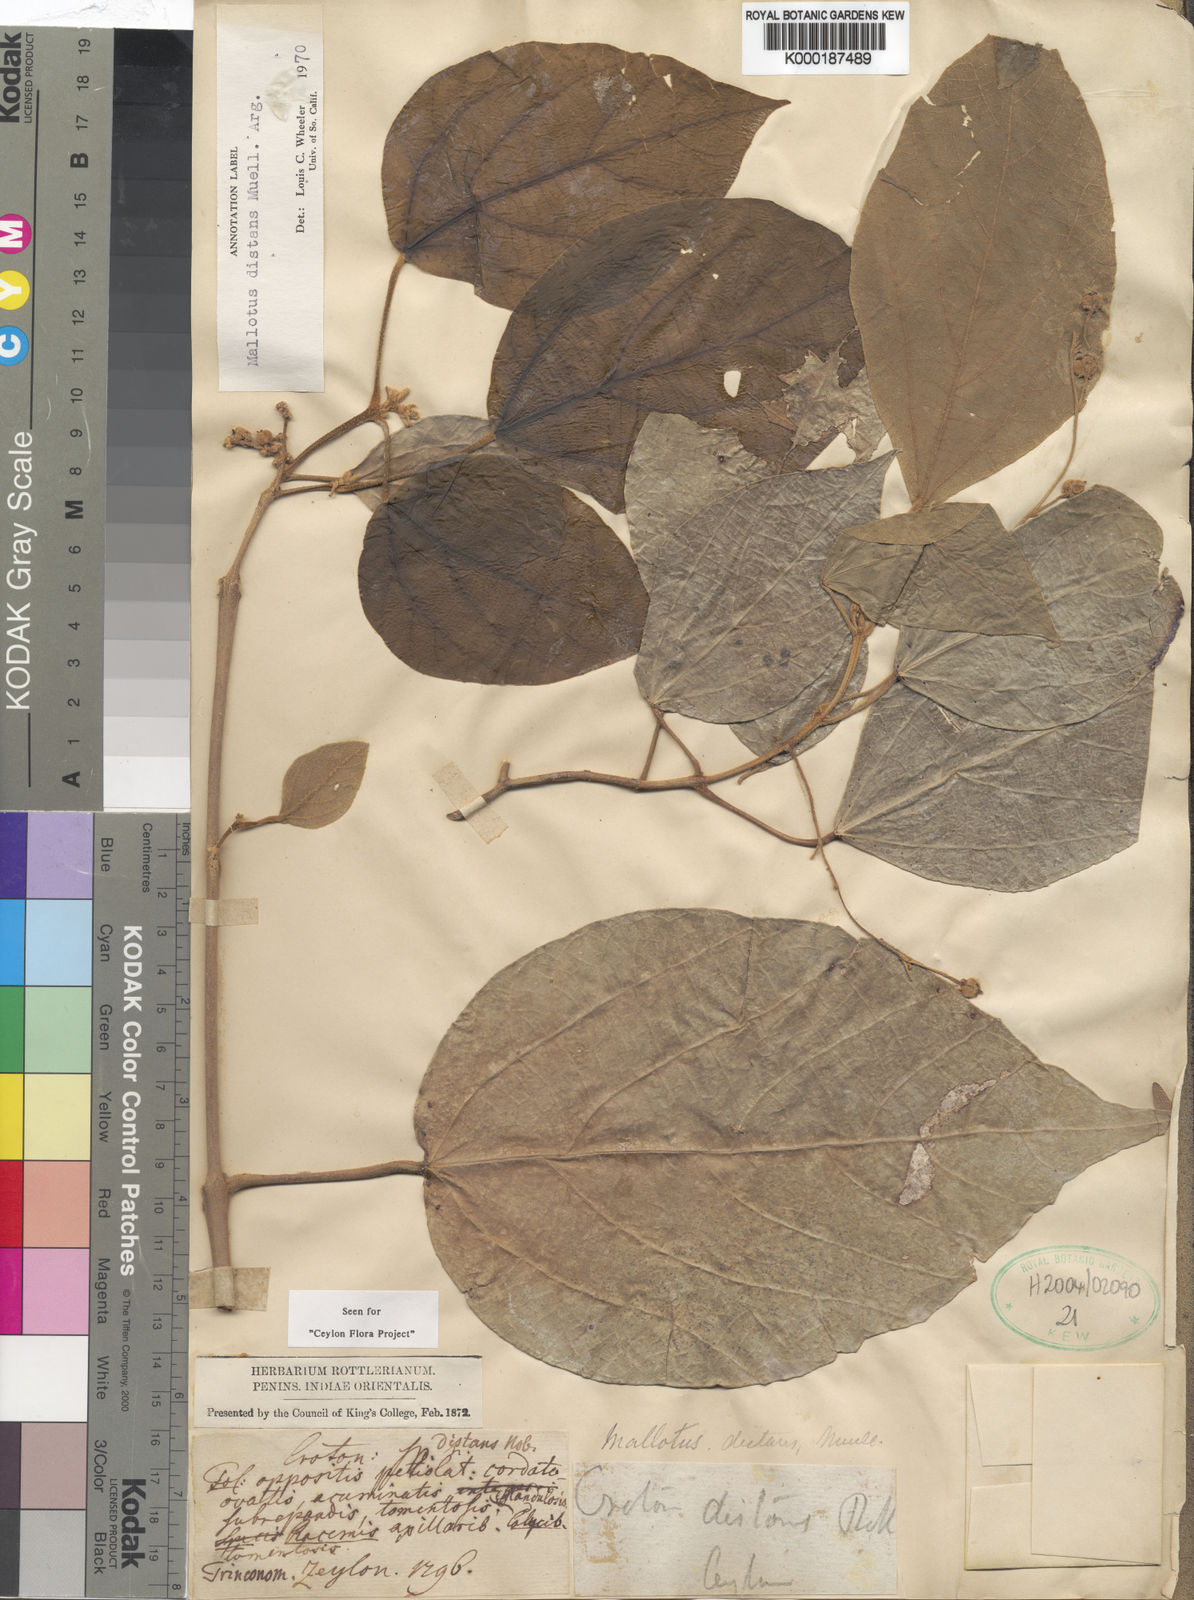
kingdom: Plantae
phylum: Tracheophyta
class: Magnoliopsida
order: Malpighiales
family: Euphorbiaceae
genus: Mallotus
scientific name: Mallotus
